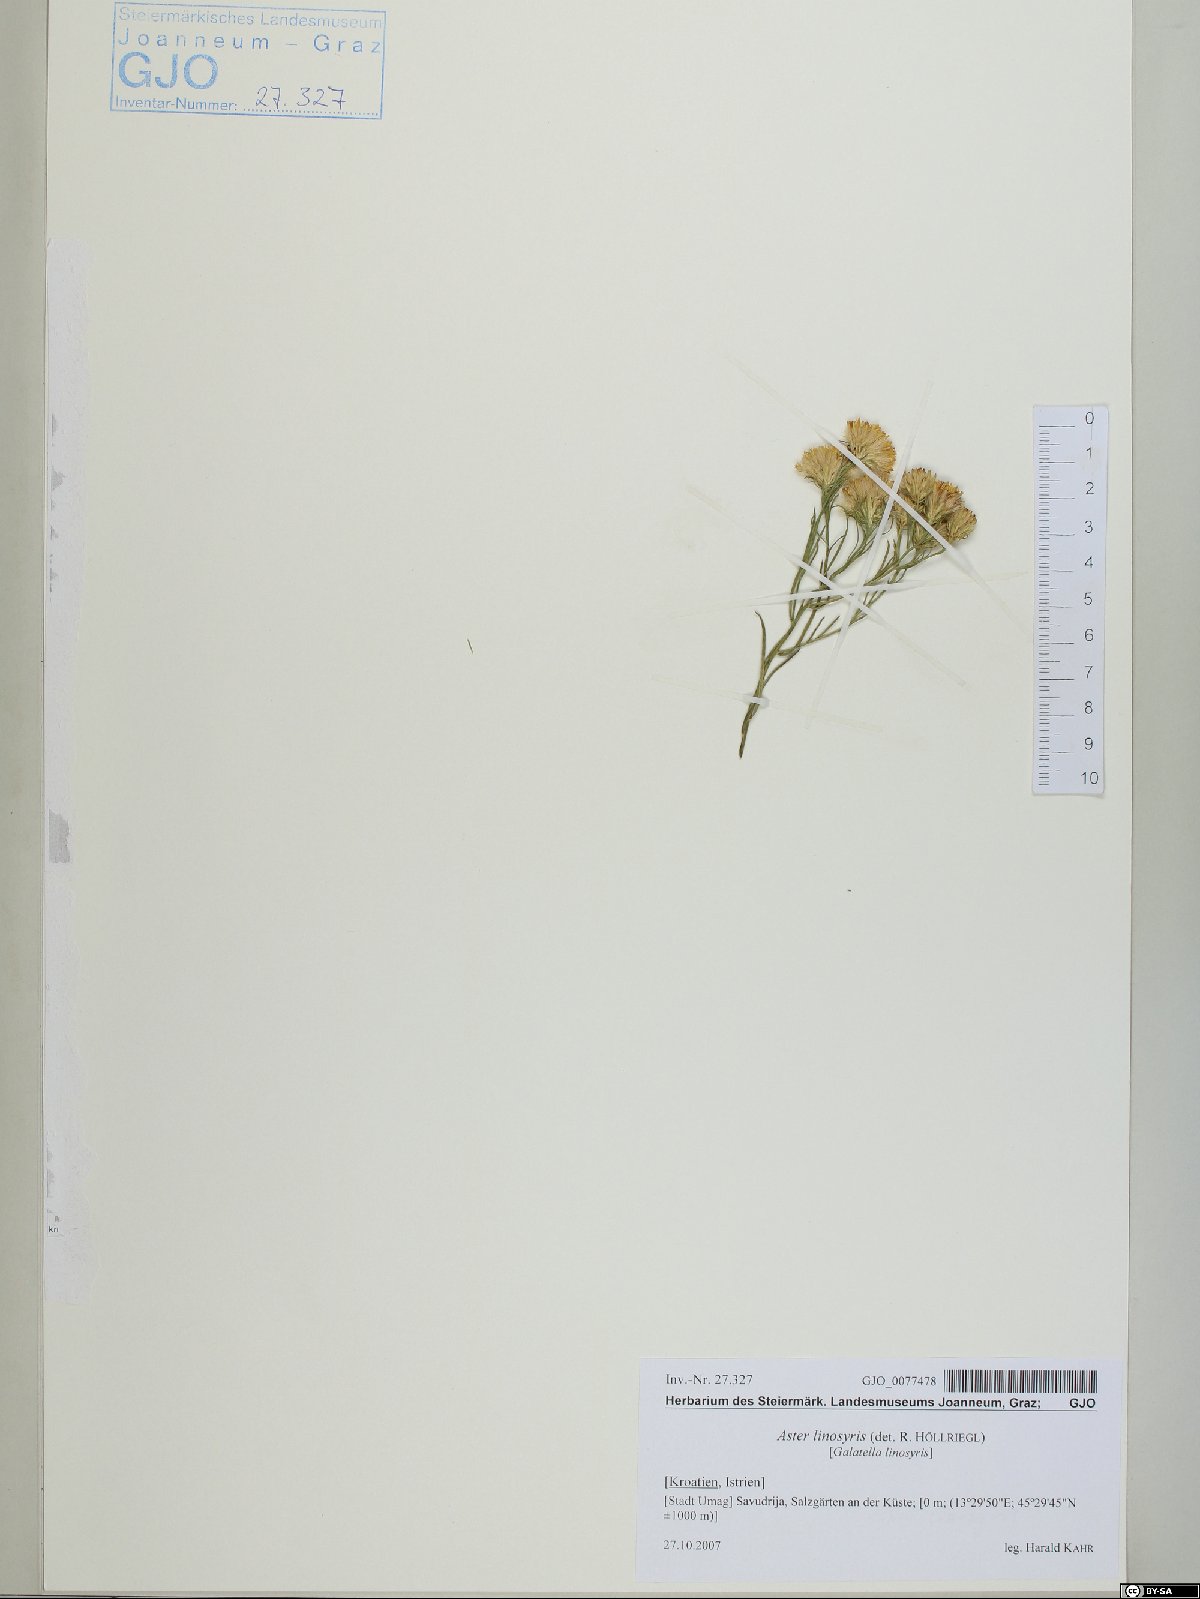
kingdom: Plantae
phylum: Tracheophyta
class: Magnoliopsida
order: Asterales
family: Asteraceae
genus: Galatella
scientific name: Galatella linosyris
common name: Goldilocks aster
